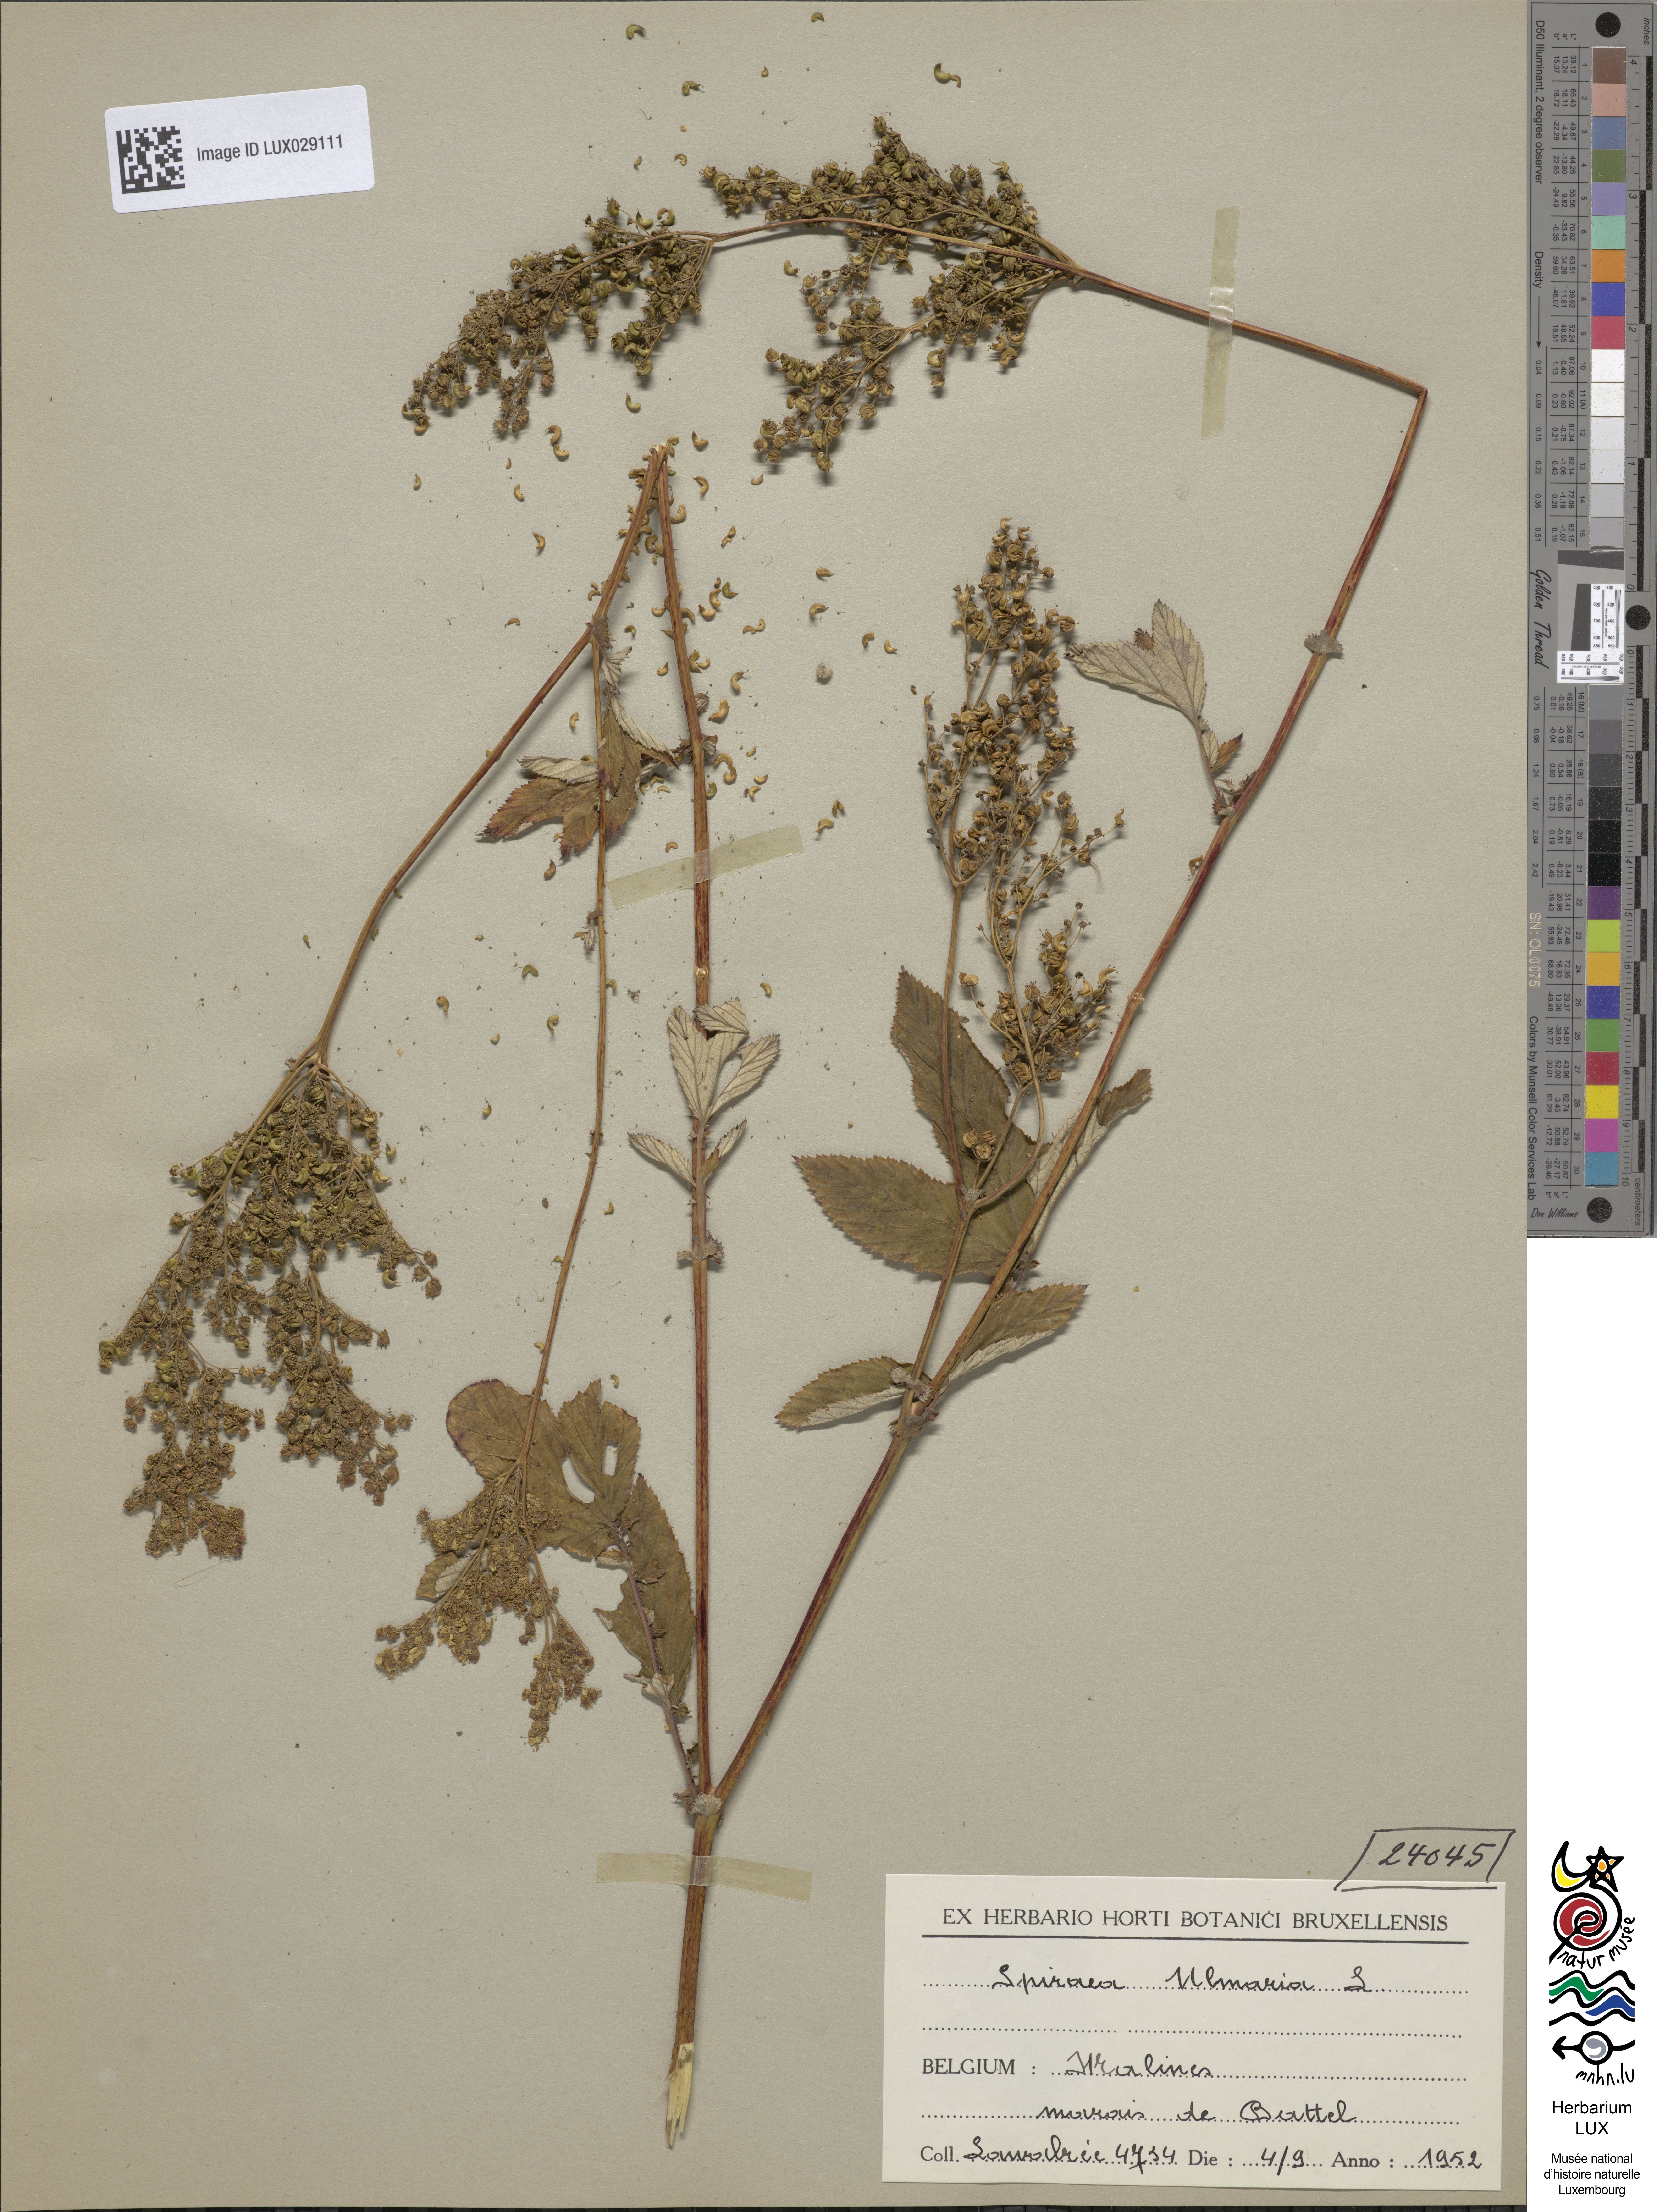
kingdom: Plantae
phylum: Tracheophyta
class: Magnoliopsida
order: Rosales
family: Rosaceae
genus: Filipendula
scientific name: Filipendula ulmaria
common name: Meadowsweet
